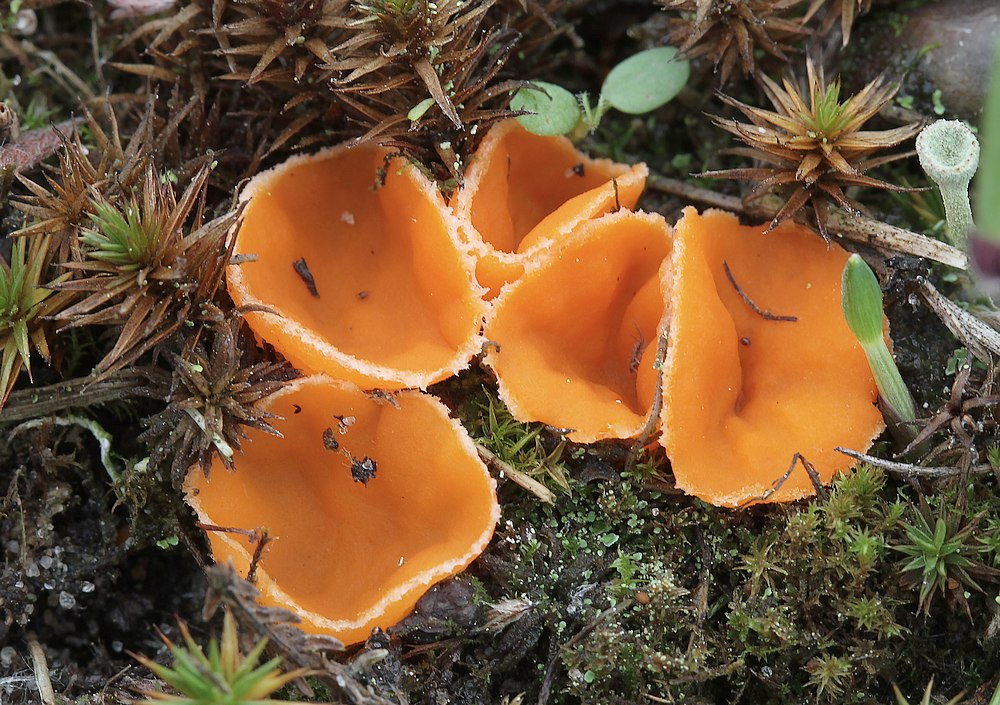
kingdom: Fungi
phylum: Ascomycota
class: Pezizomycetes
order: Pezizales
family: Pyronemataceae
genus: Neottiella
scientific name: Neottiella rutilans
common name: jomfruhår-mosbæger
